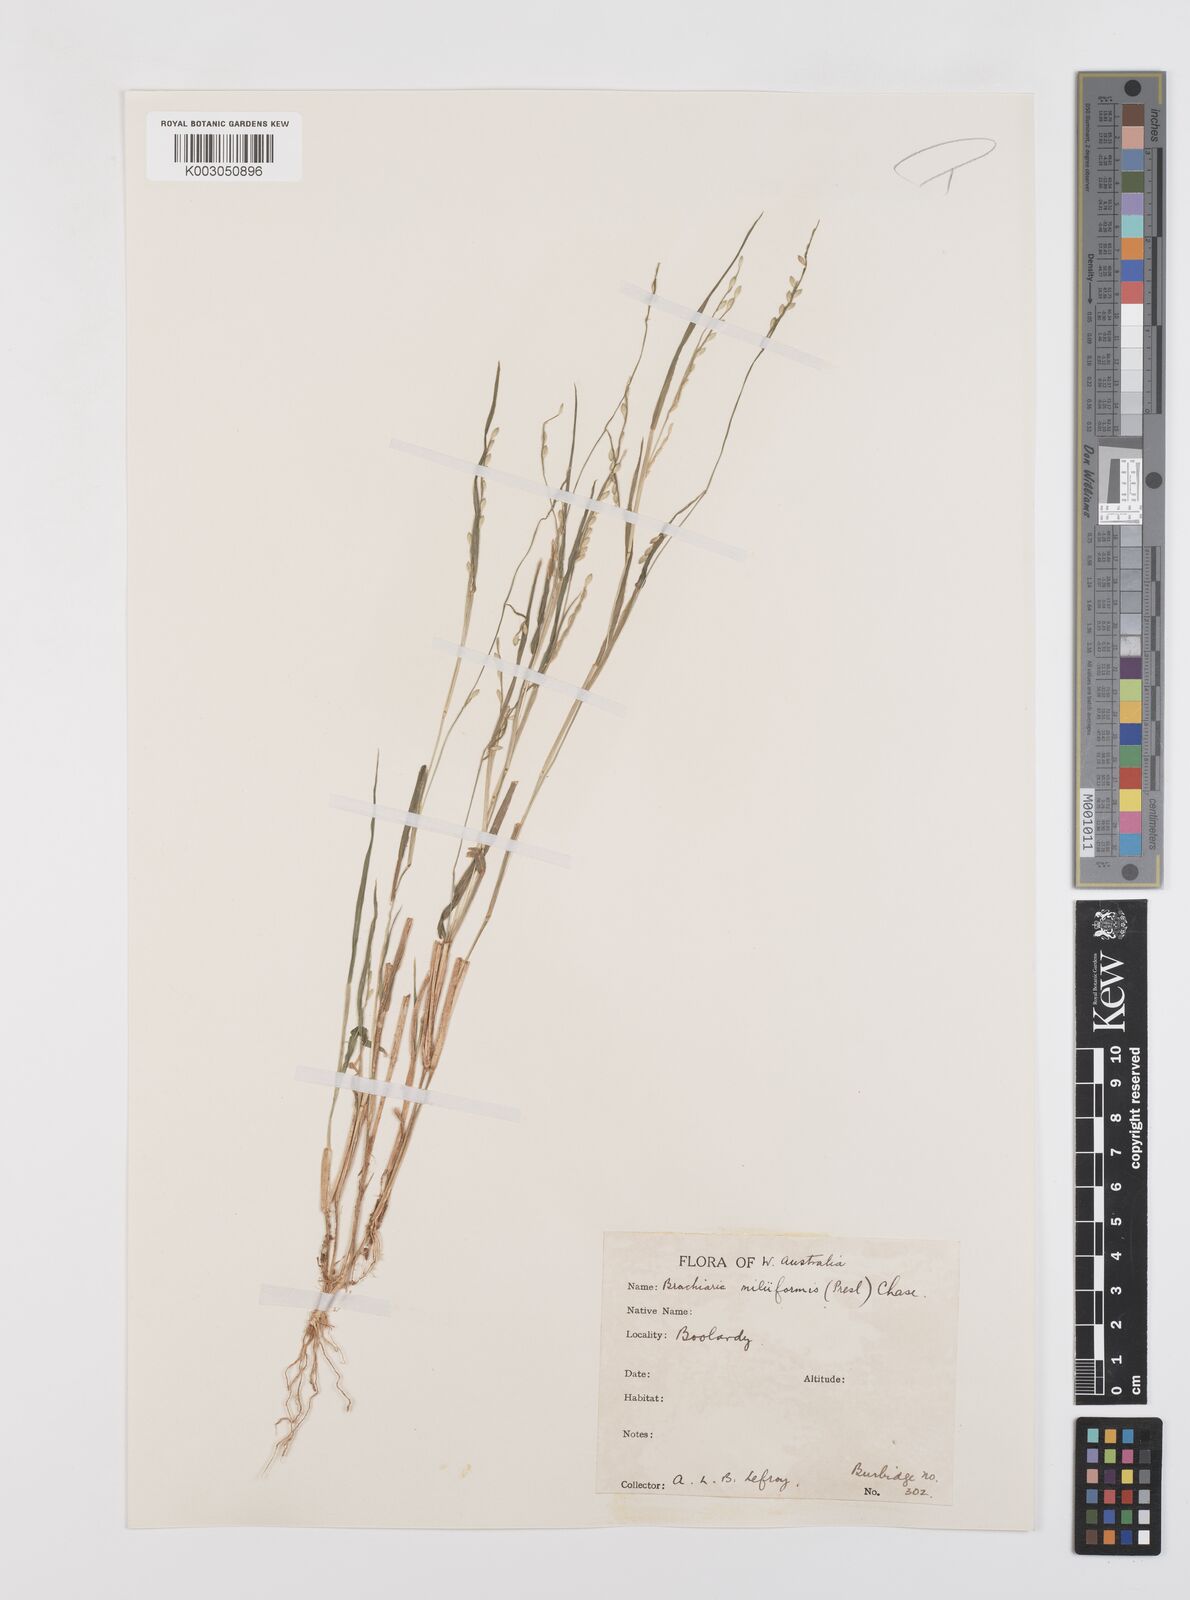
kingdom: Plantae
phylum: Tracheophyta
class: Liliopsida
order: Poales
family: Poaceae
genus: Urochloa
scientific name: Urochloa subquadripara
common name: Armgrass millet
